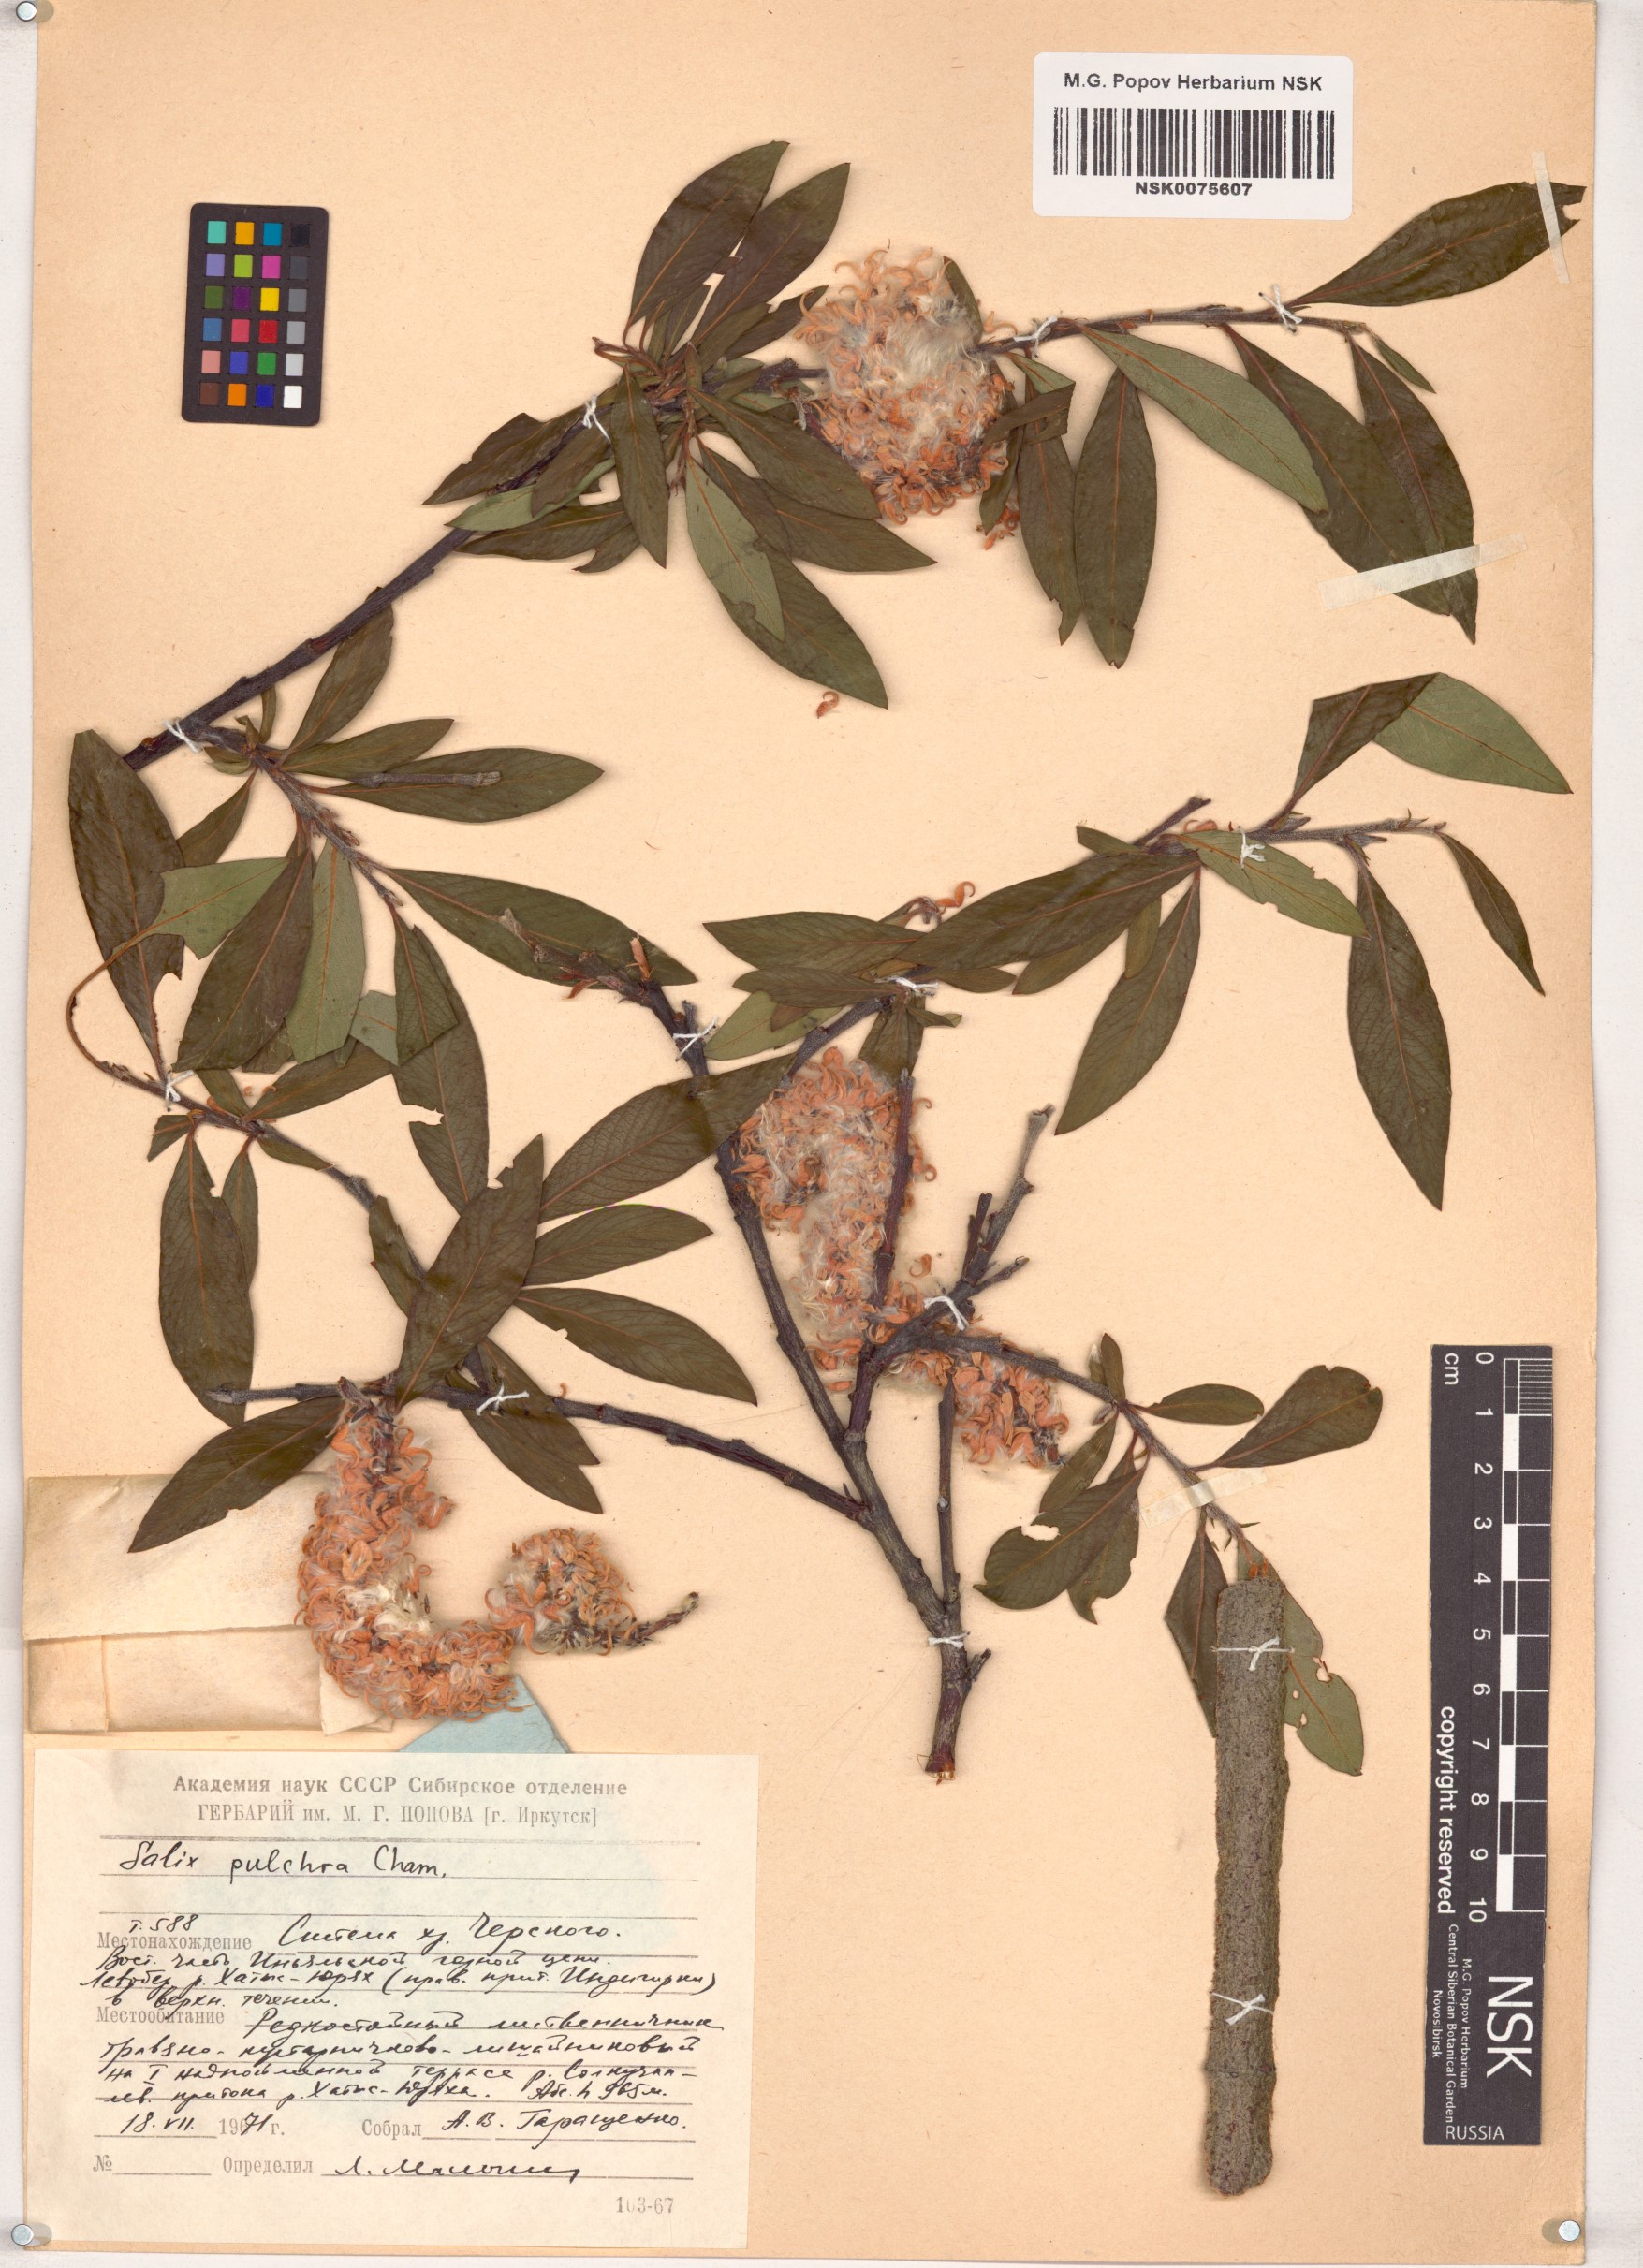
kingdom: Plantae
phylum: Tracheophyta
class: Magnoliopsida
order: Malpighiales
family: Salicaceae
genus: Salix
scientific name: Salix pulchra
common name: Diamond-leaved willow
